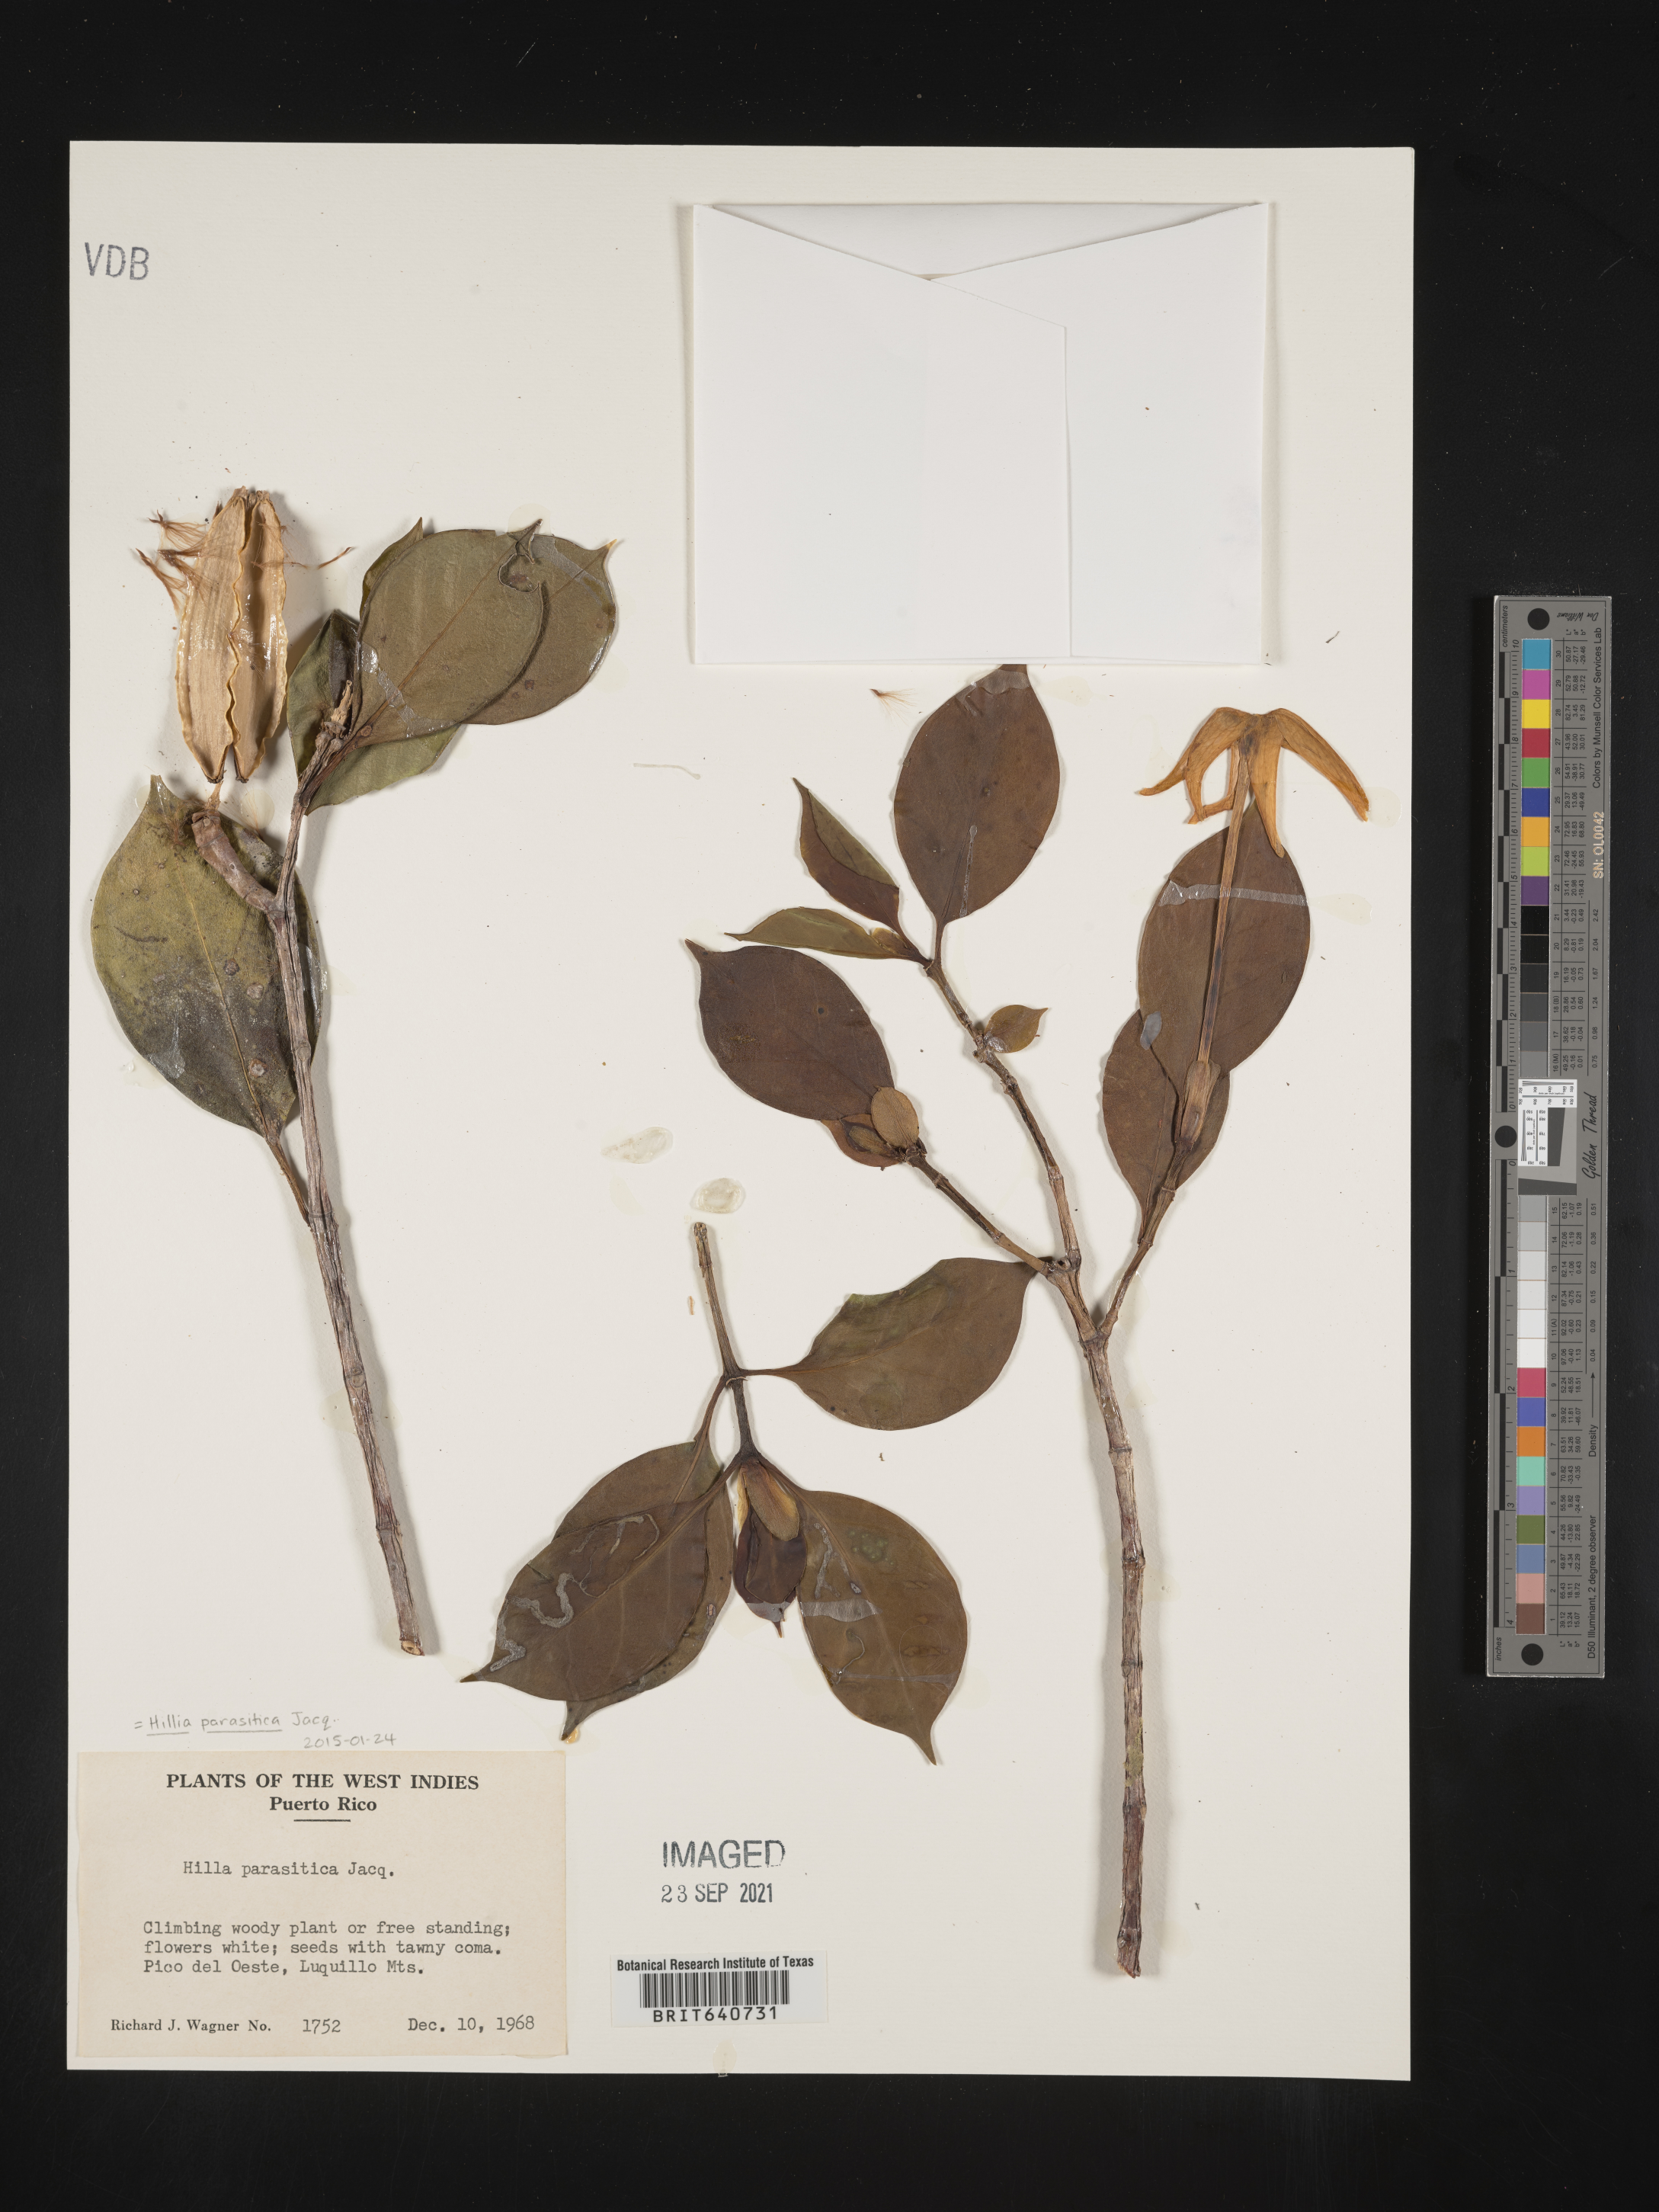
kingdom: Plantae
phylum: Tracheophyta
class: Magnoliopsida
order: Gentianales
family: Rubiaceae
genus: Hillia
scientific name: Hillia
